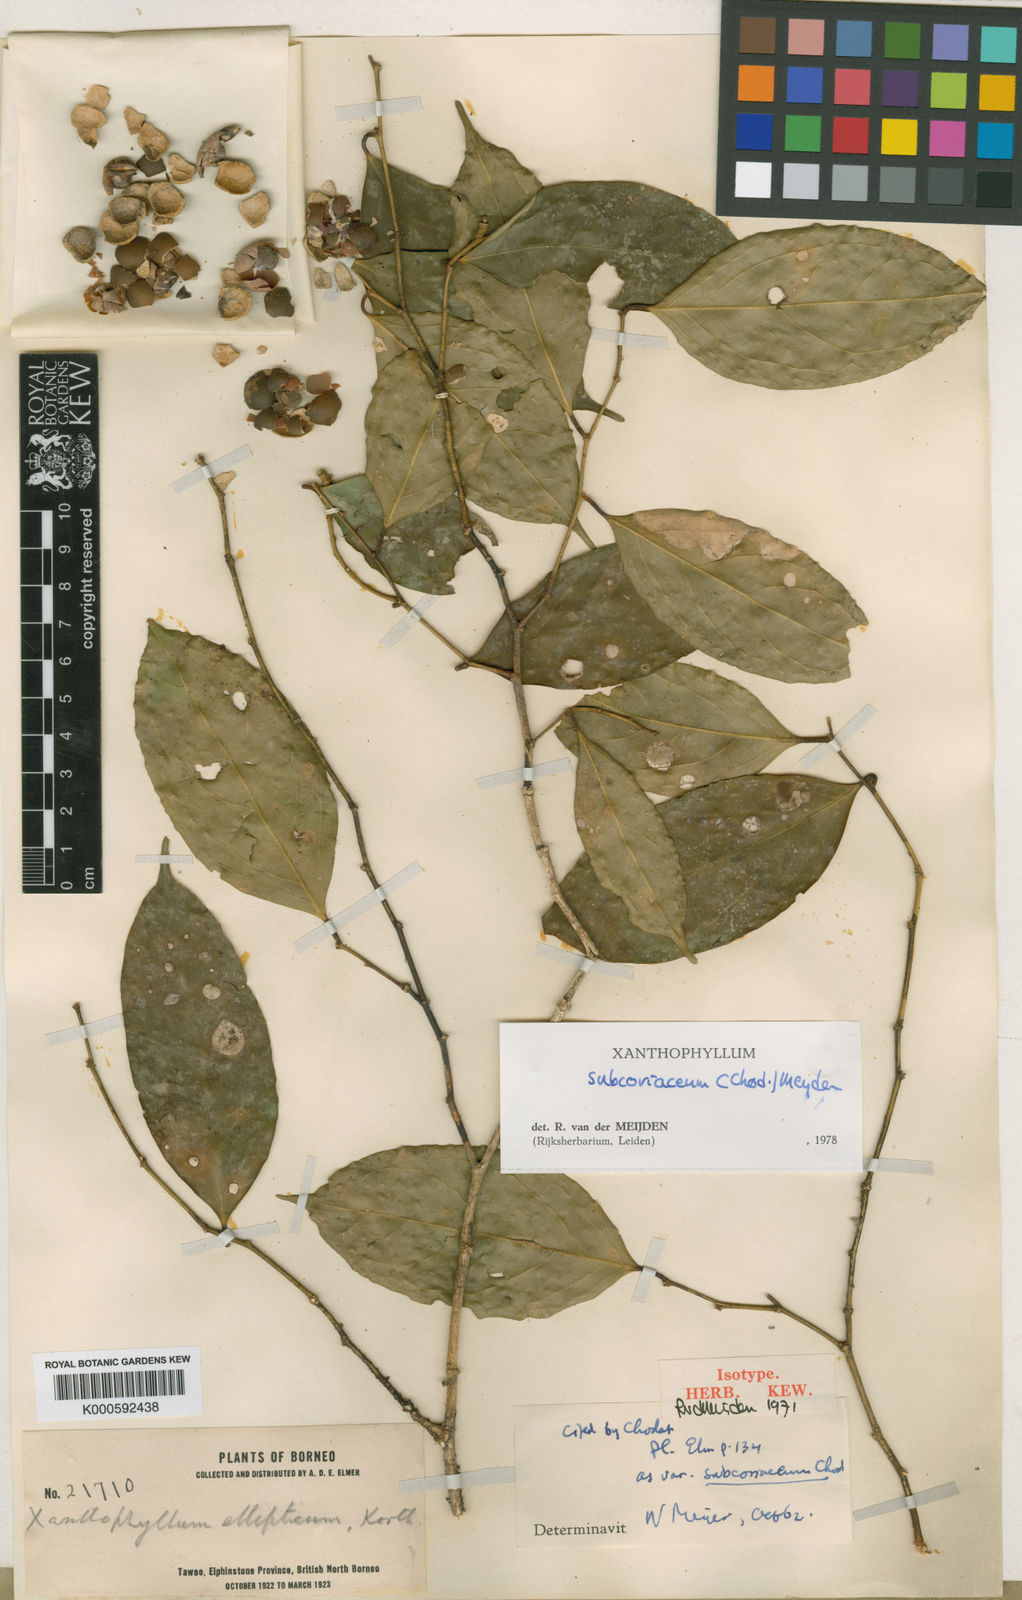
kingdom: Plantae
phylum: Tracheophyta
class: Magnoliopsida
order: Fabales
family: Polygalaceae
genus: Xanthophyllum
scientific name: Xanthophyllum subcoriaceum
